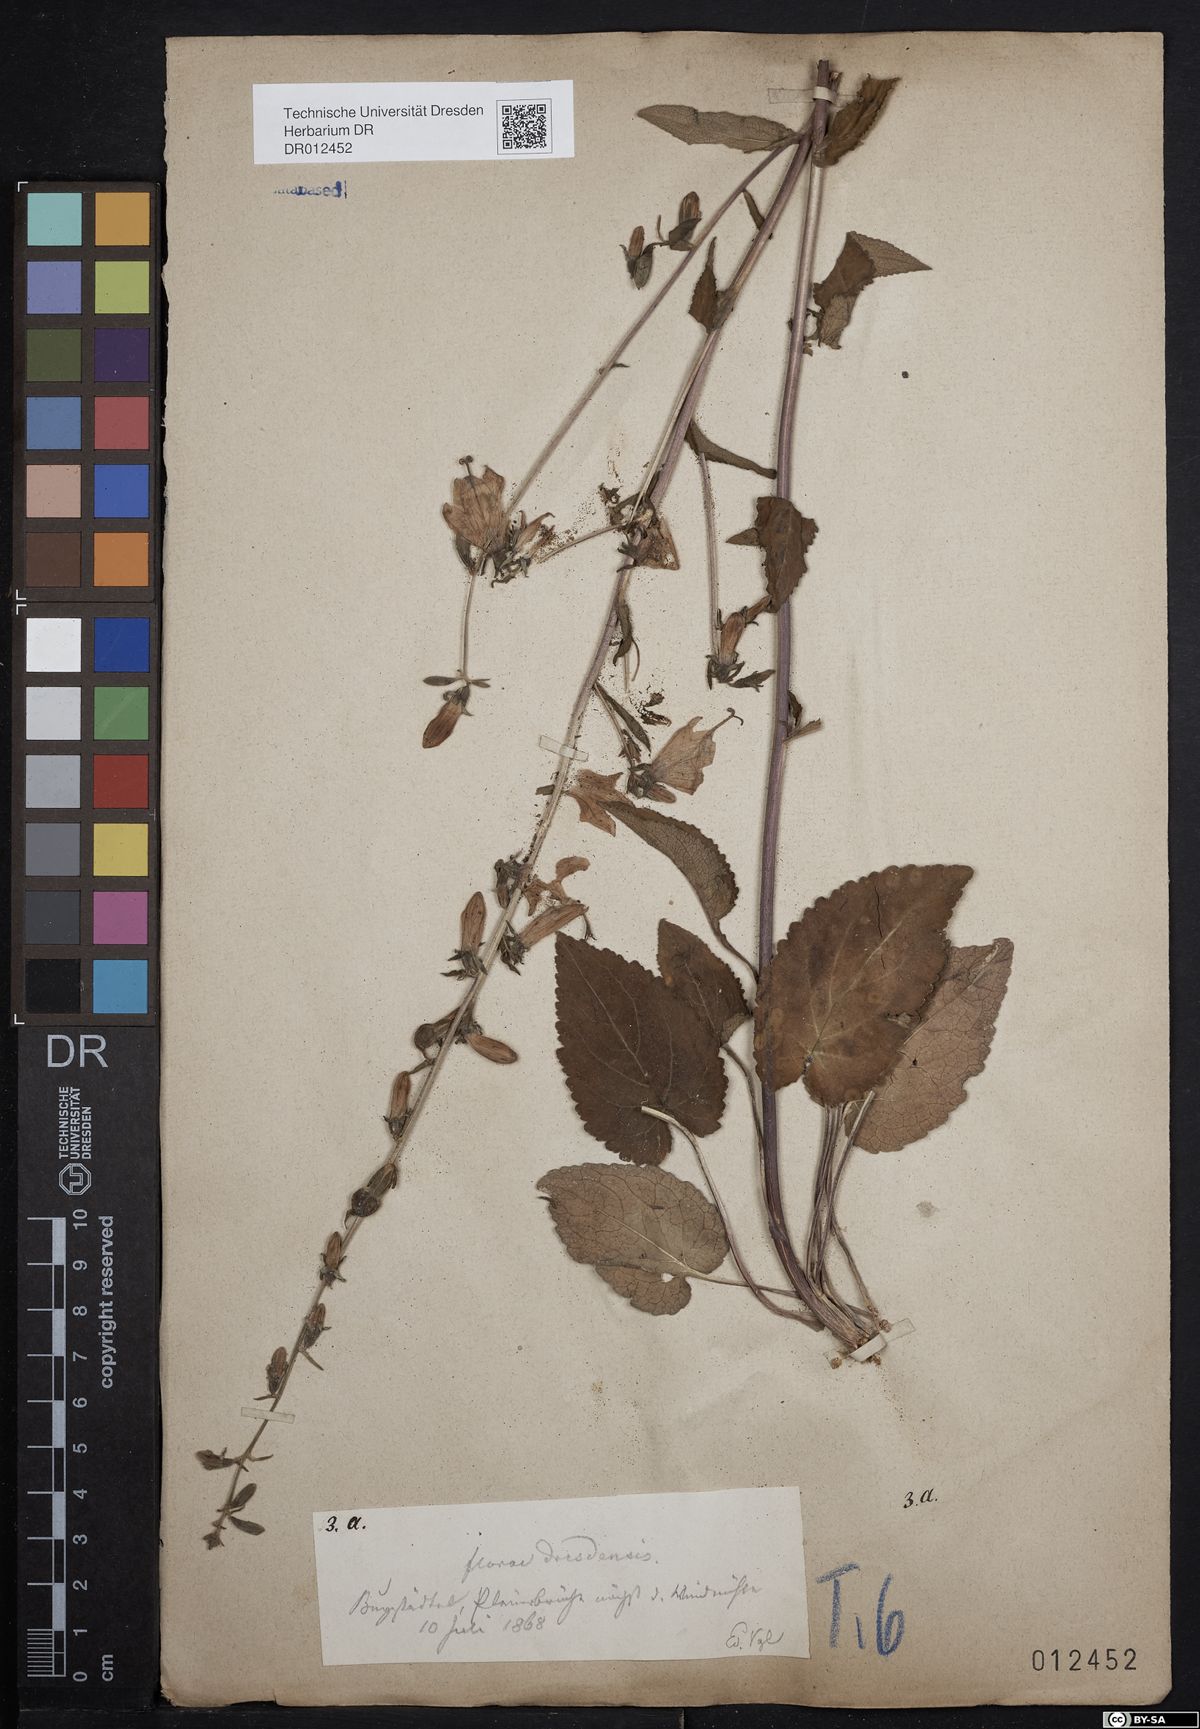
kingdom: Plantae
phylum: Tracheophyta
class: Magnoliopsida
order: Asterales
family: Campanulaceae
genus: Campanula
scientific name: Campanula rapunculoides
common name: Creeping bellflower
